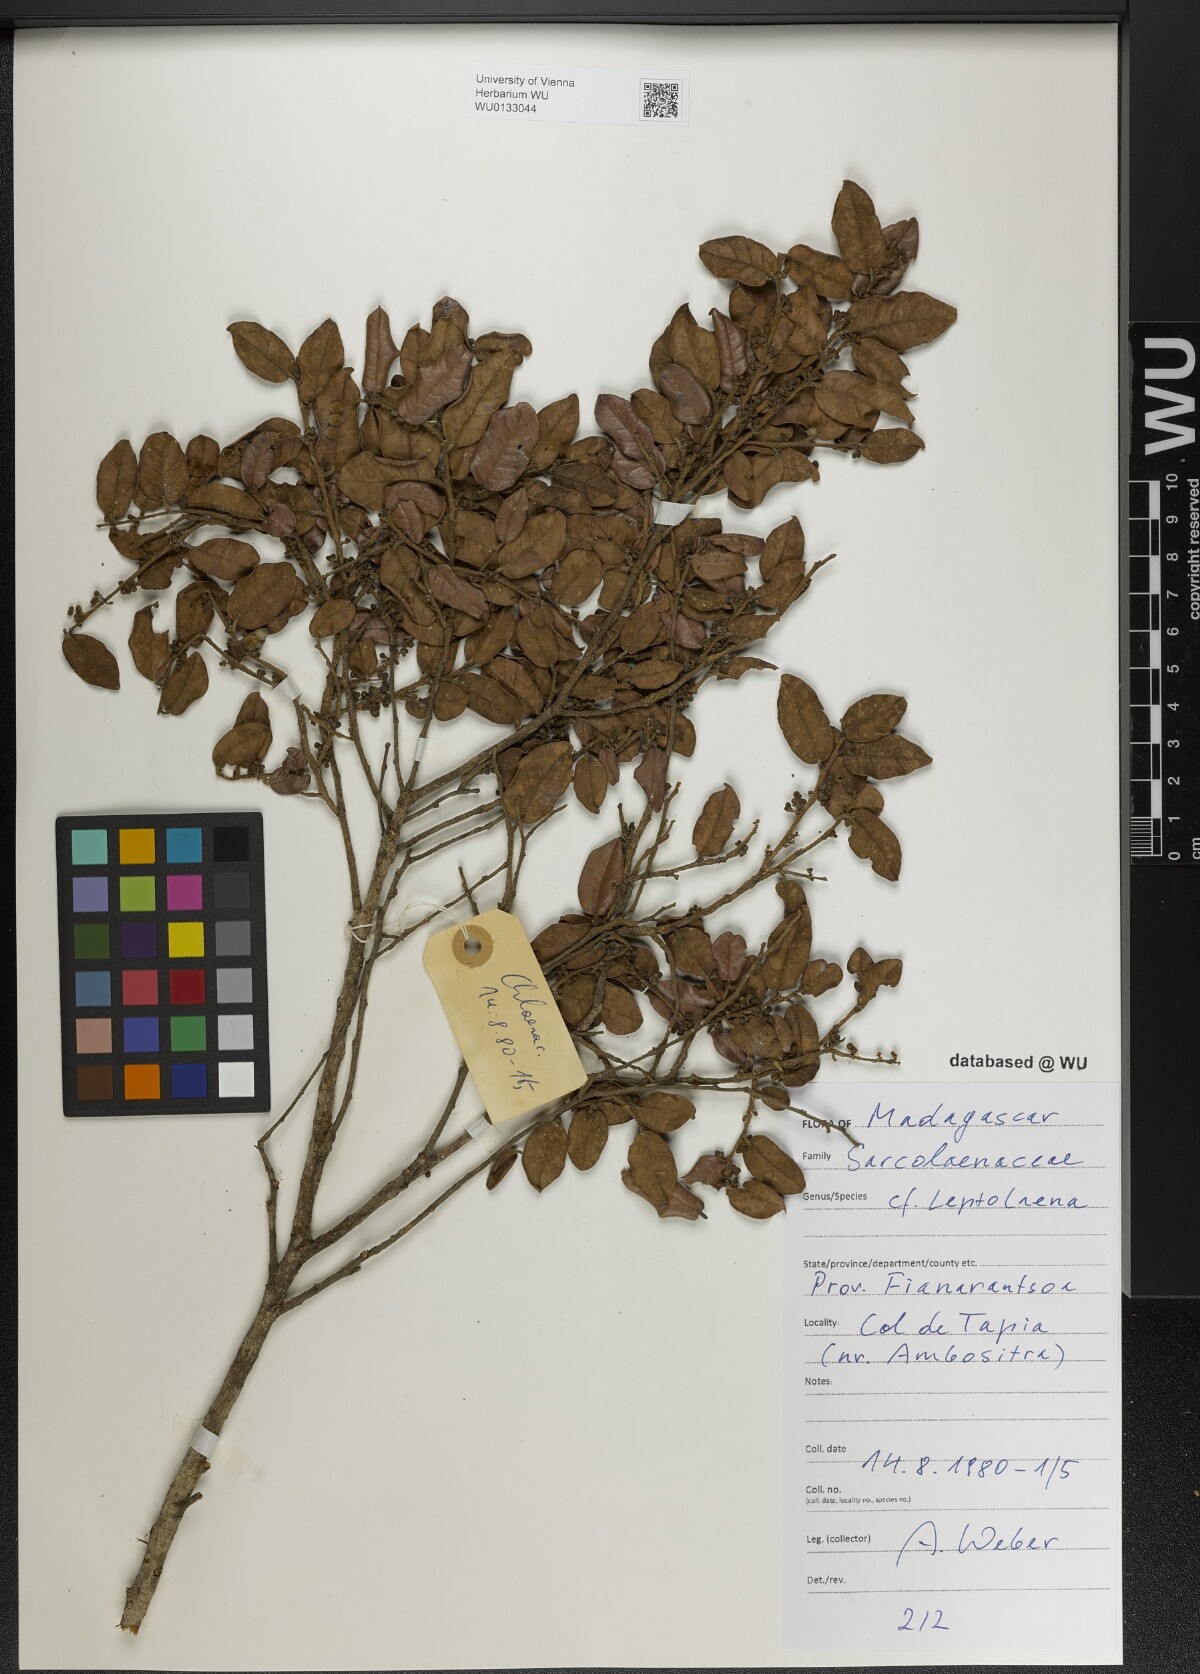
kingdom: Plantae
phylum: Tracheophyta
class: Magnoliopsida
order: Malvales
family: Sarcolaenaceae
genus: Leptolaena
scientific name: Leptolaena
